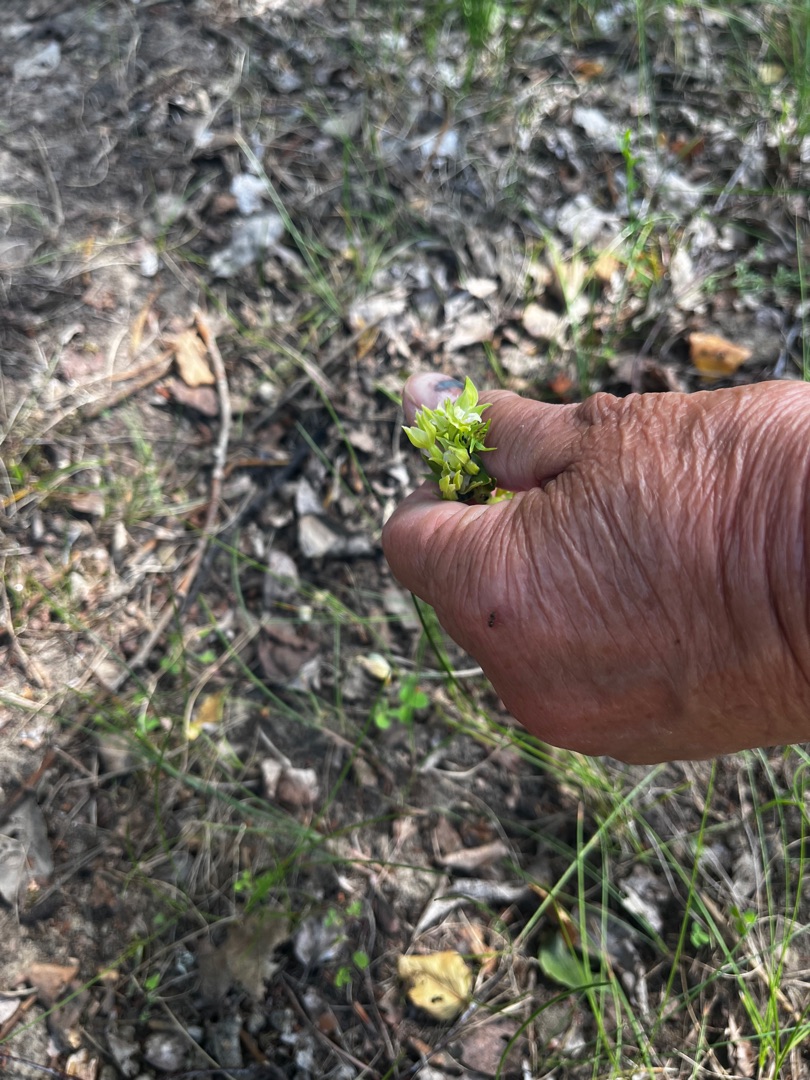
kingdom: Plantae
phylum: Tracheophyta
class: Liliopsida
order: Asparagales
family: Orchidaceae
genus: Epipactis
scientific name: Epipactis phyllanthes
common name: Nikkende hullæbe
